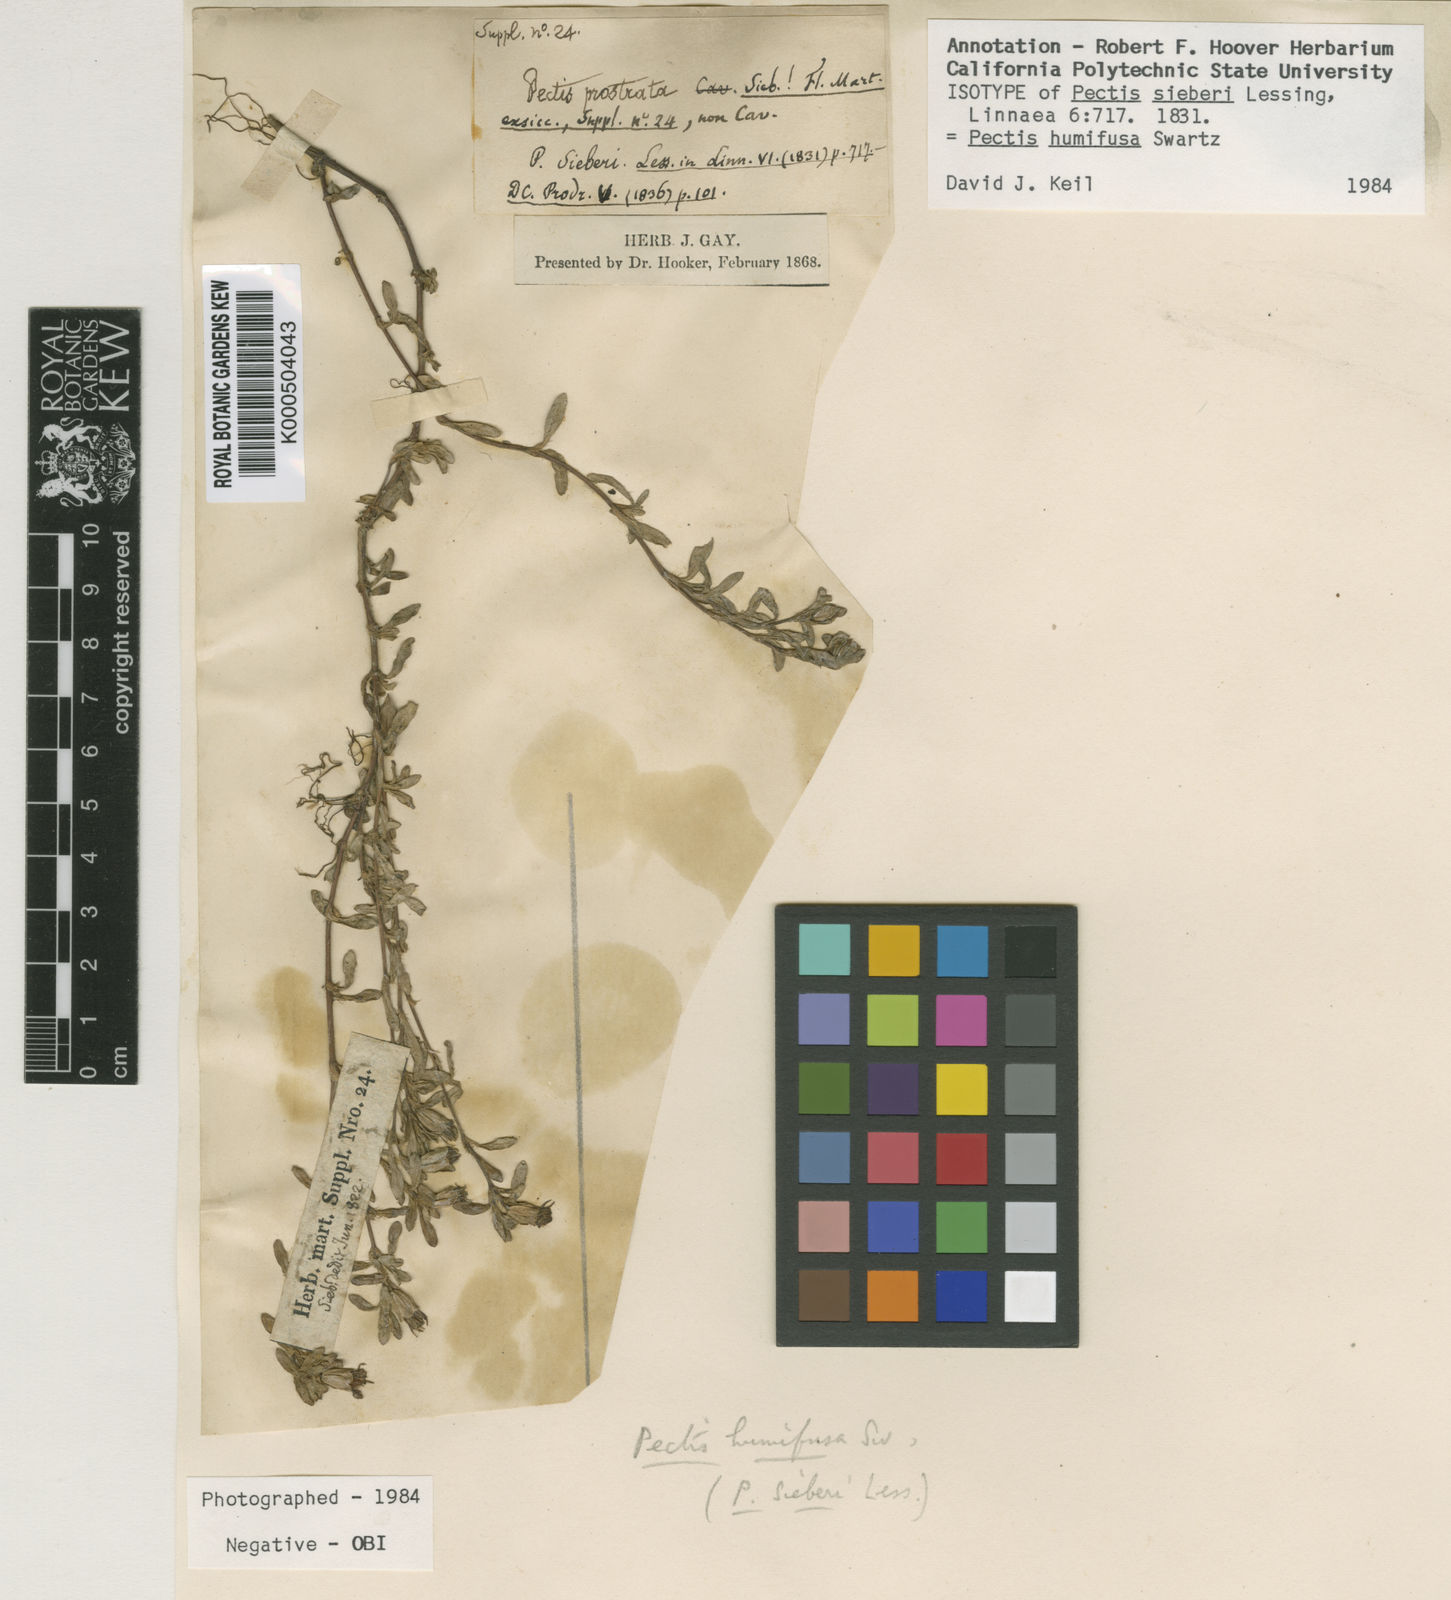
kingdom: Plantae
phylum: Tracheophyta
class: Magnoliopsida
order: Asterales
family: Asteraceae
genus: Pectis
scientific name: Pectis humifusa
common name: Yerba de san juan
